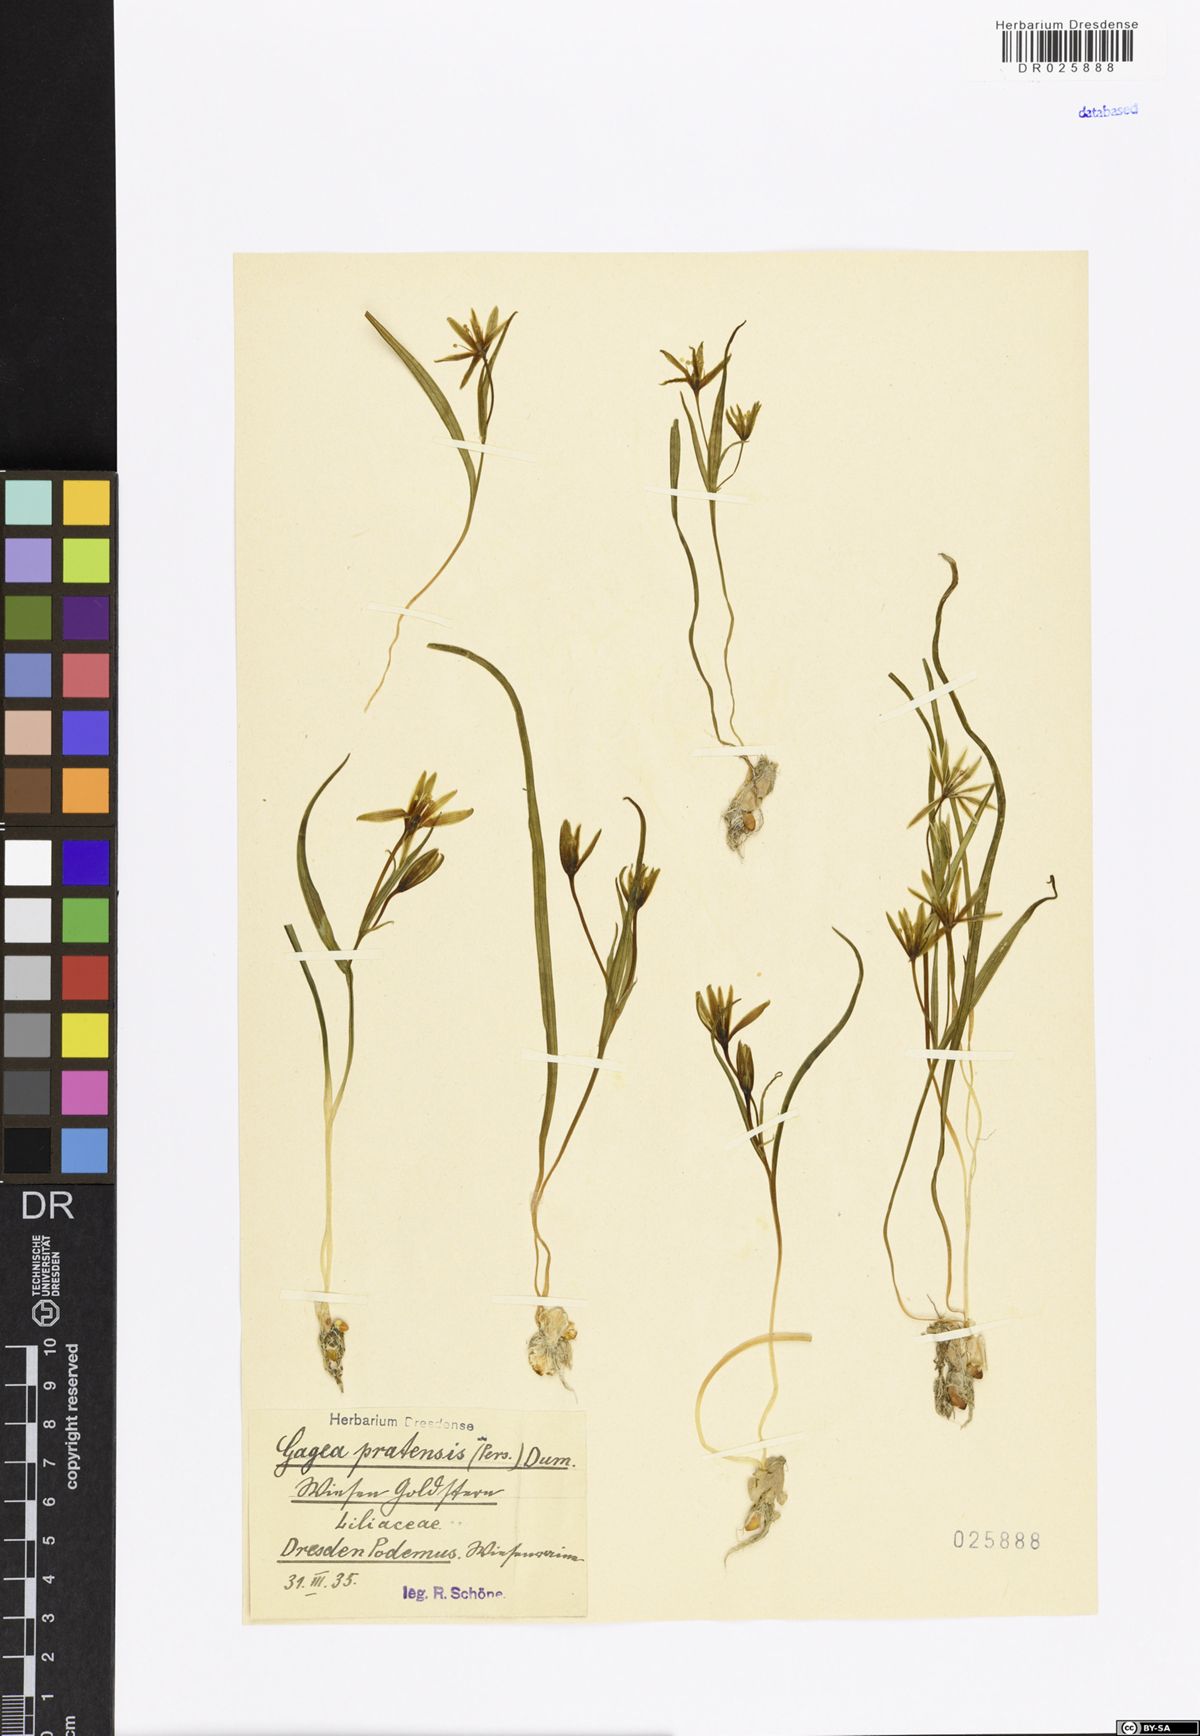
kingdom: Plantae
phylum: Tracheophyta
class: Liliopsida
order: Liliales
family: Liliaceae
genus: Gagea
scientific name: Gagea pratensis
